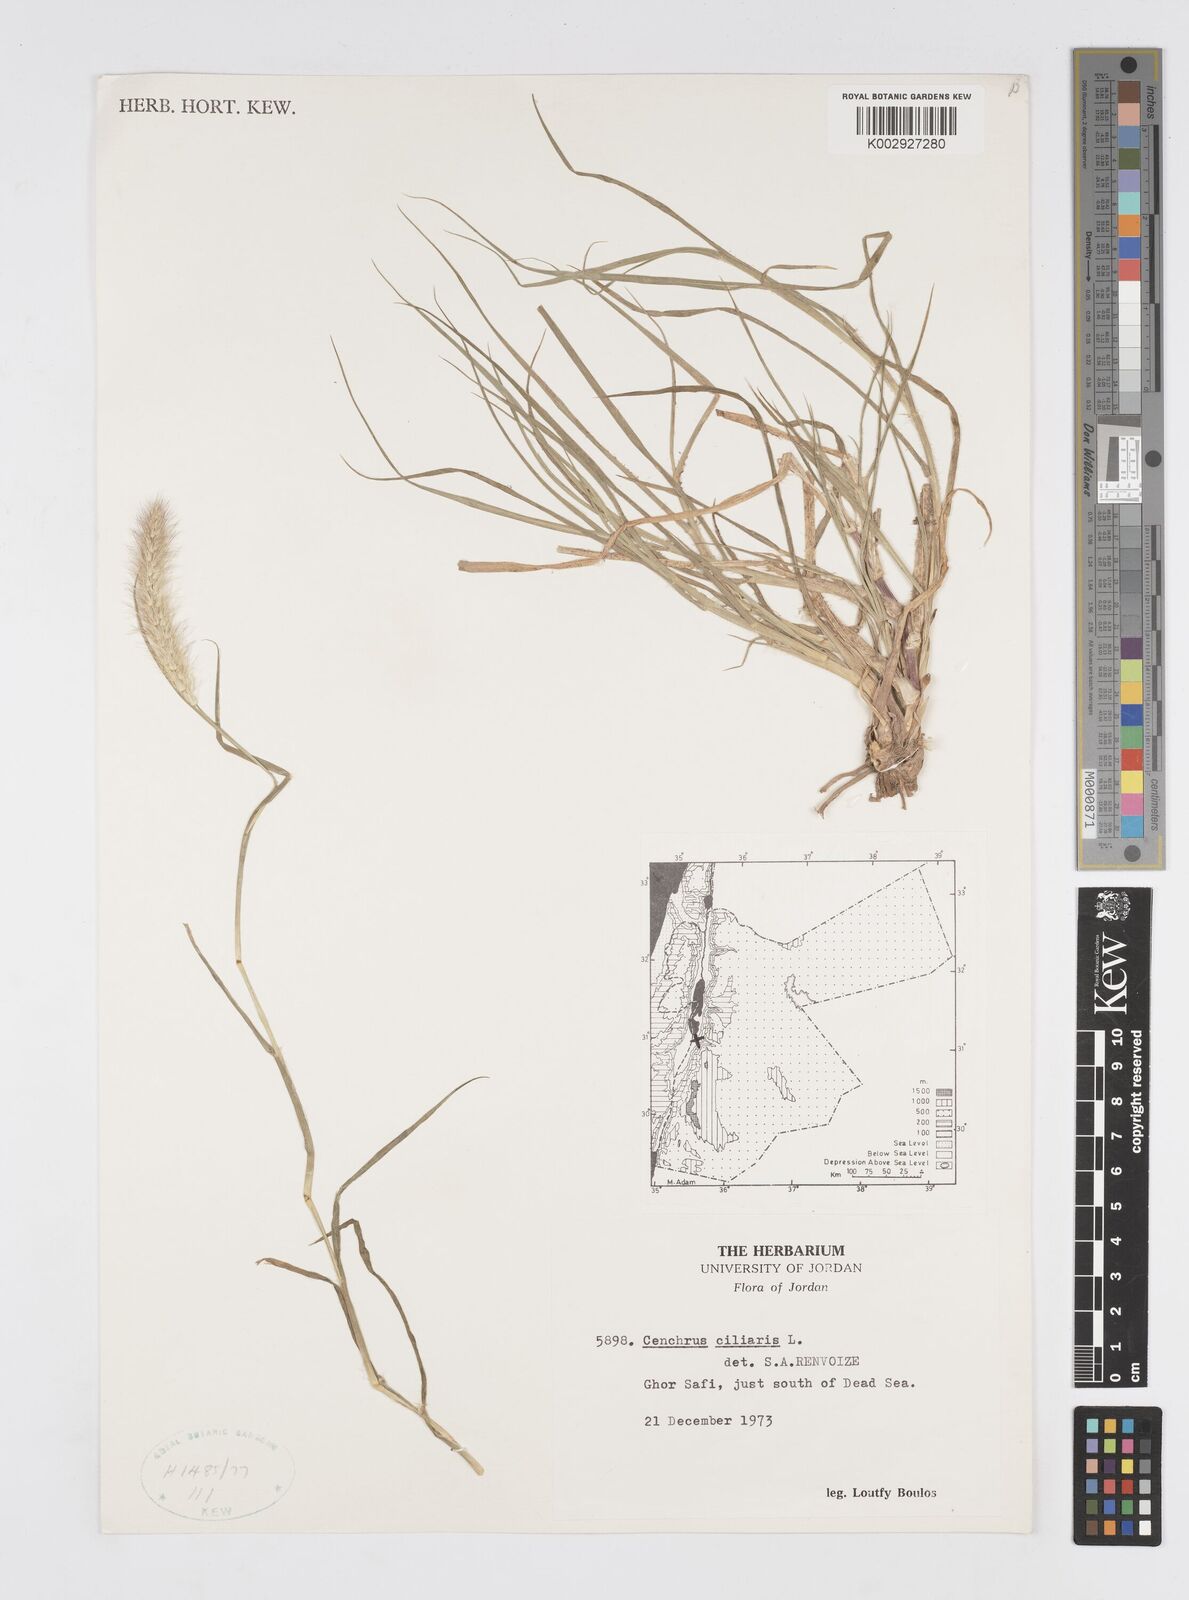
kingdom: Plantae
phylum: Tracheophyta
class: Liliopsida
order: Poales
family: Poaceae
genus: Cenchrus
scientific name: Cenchrus ciliaris
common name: Buffelgrass
